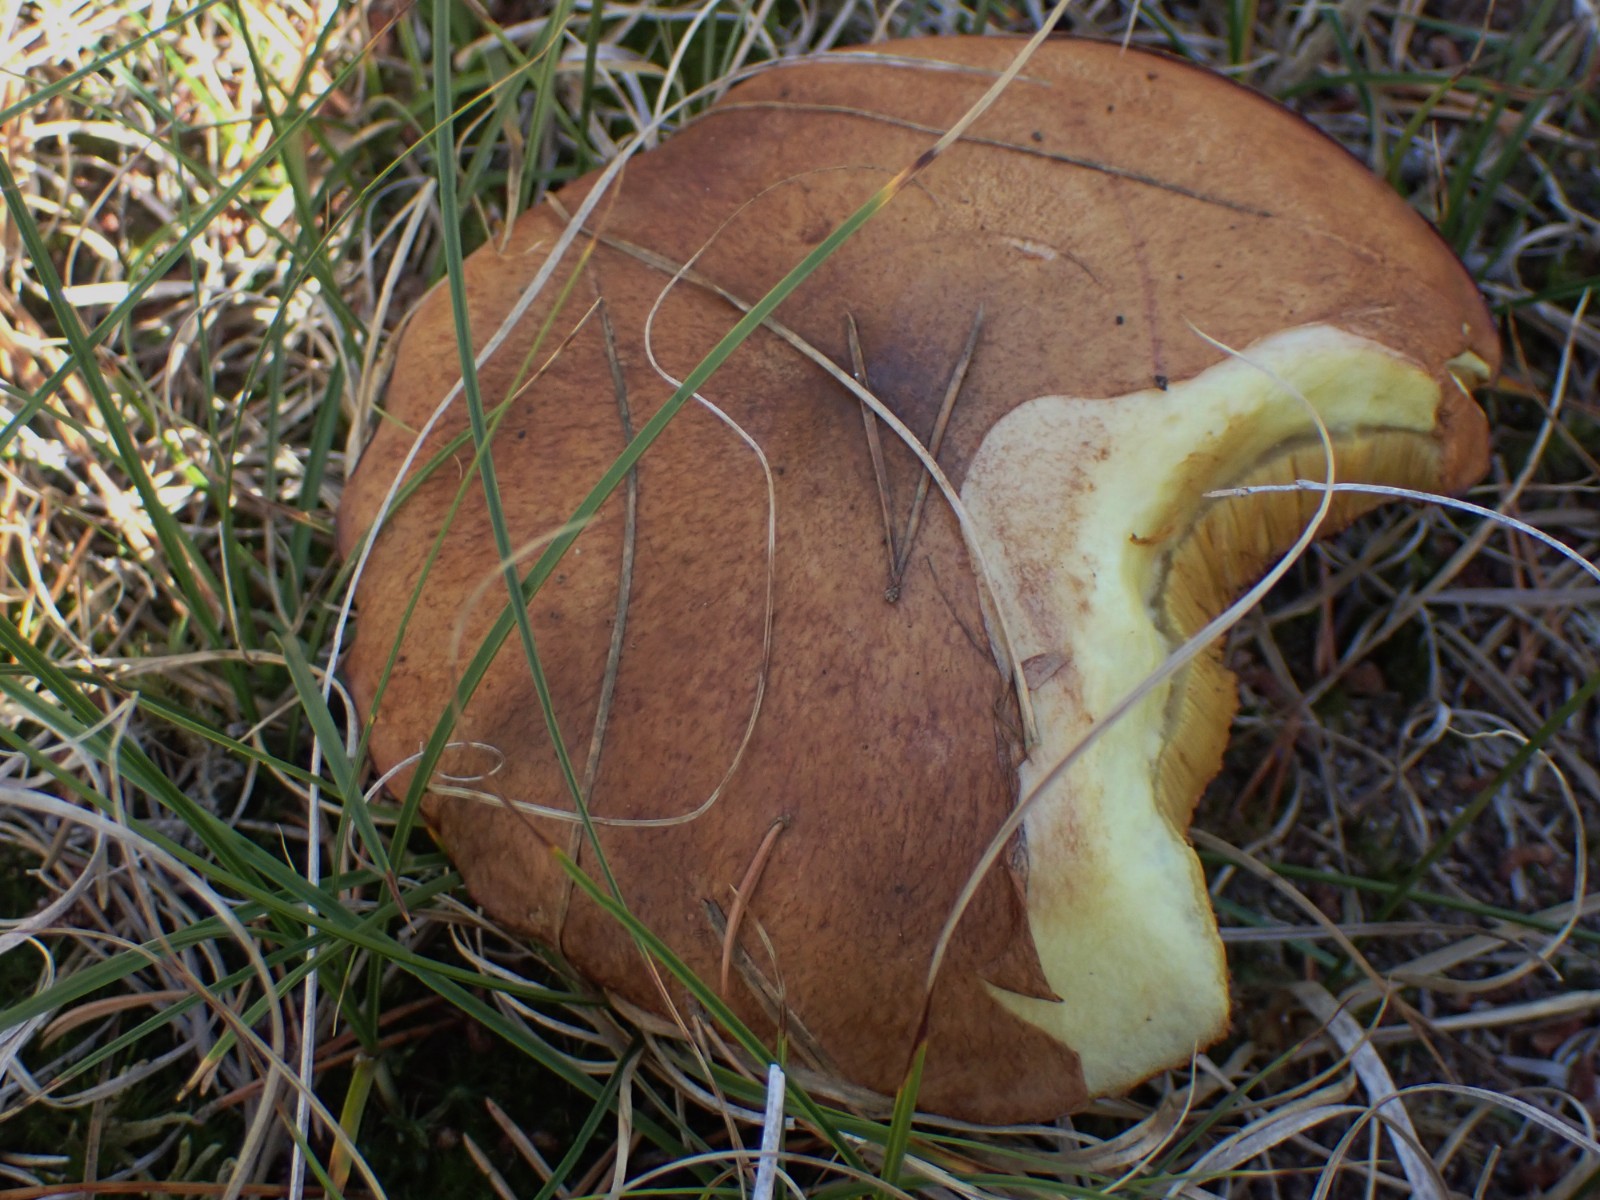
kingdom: Fungi
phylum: Basidiomycota
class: Agaricomycetes
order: Boletales
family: Suillaceae
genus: Suillus
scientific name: Suillus luteus
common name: brungul slimrørhat
